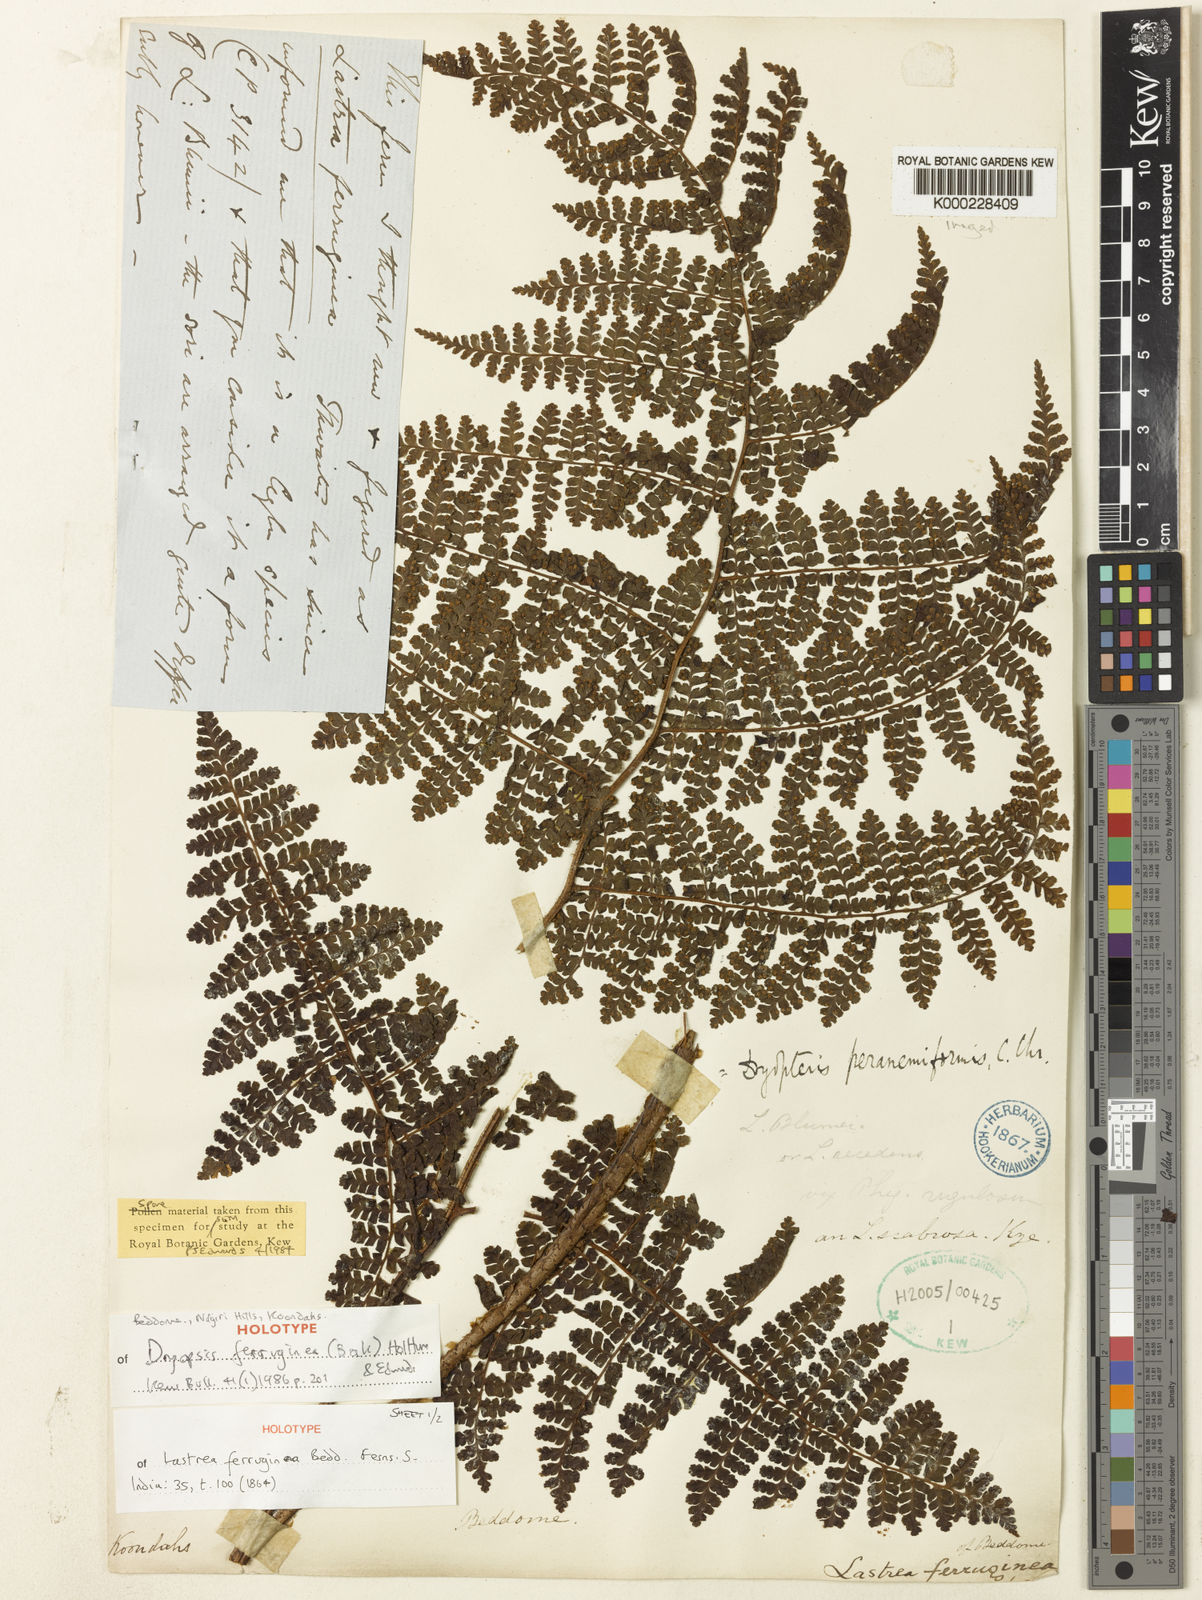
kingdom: Plantae
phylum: Tracheophyta
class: Polypodiopsida
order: Polypodiales
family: Dryopteridaceae
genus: Dryopteris
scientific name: Dryopteris peranemiformis
